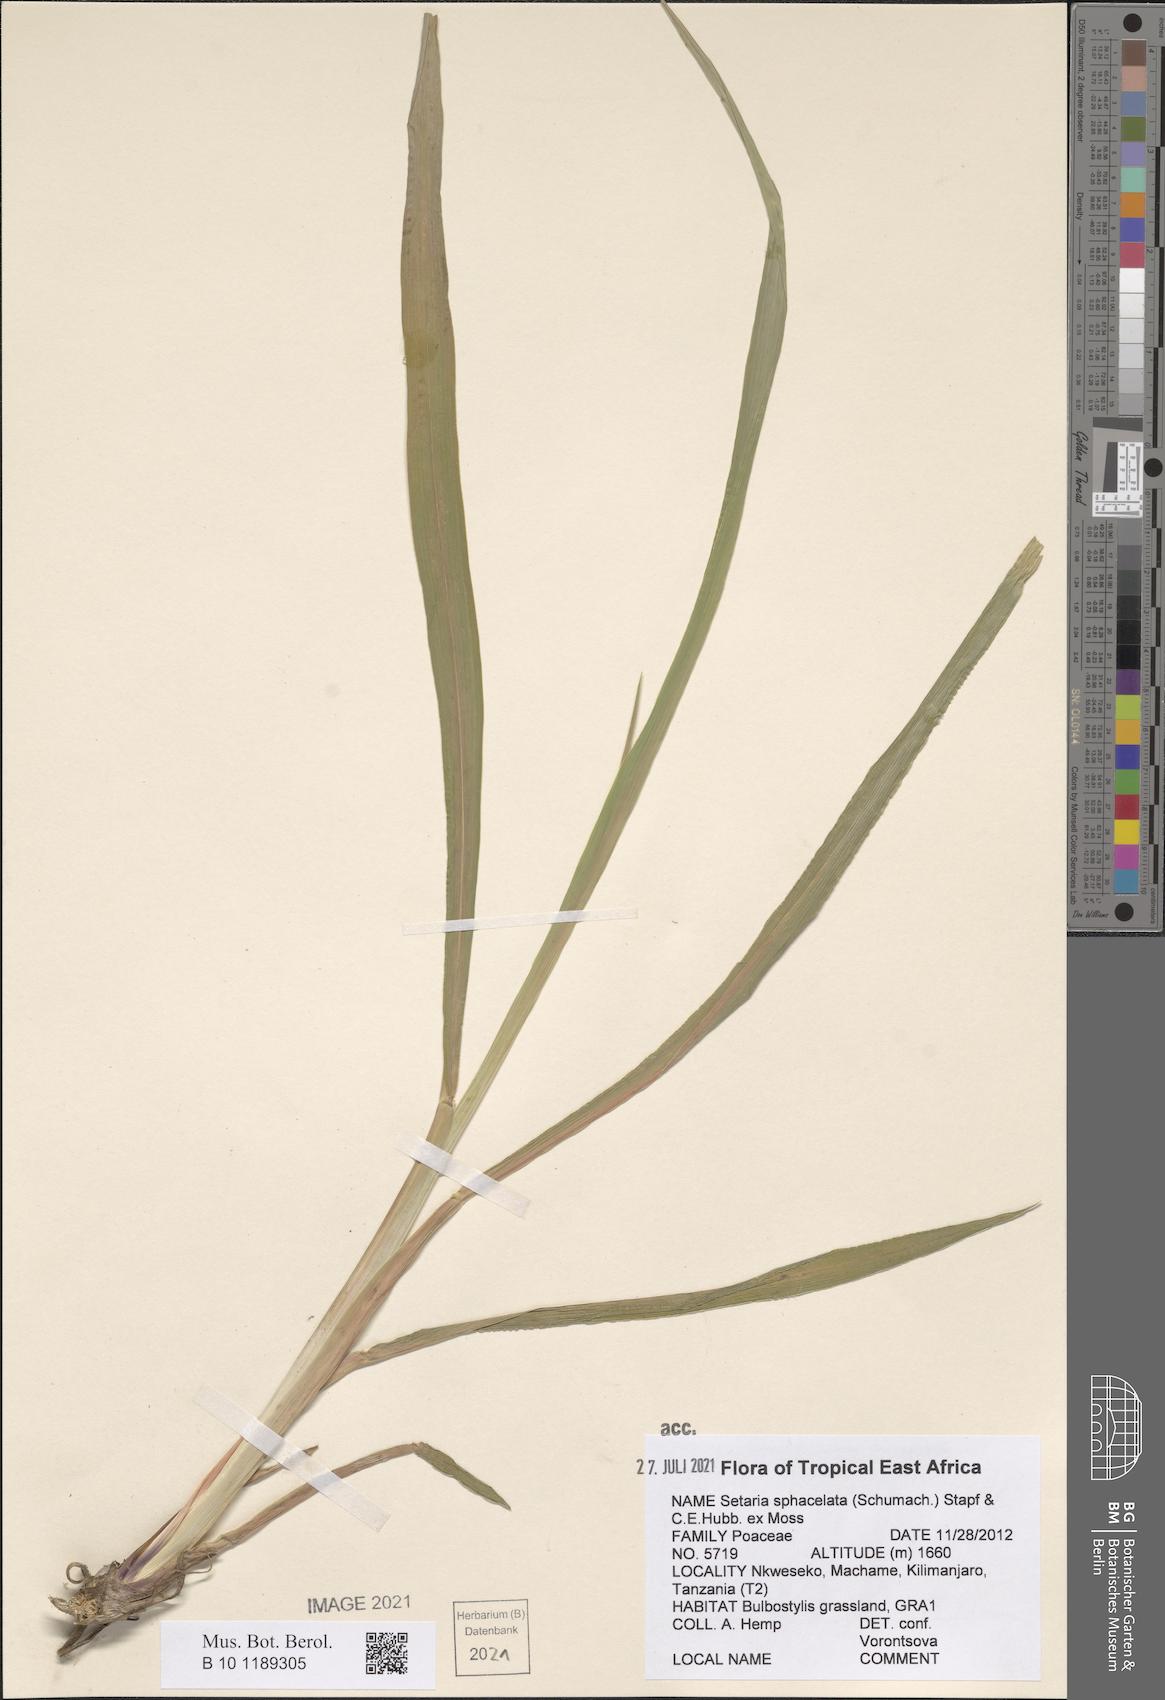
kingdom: Plantae
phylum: Tracheophyta
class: Liliopsida
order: Poales
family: Poaceae
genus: Setaria
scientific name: Setaria sphacelata
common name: African bristlegrass
